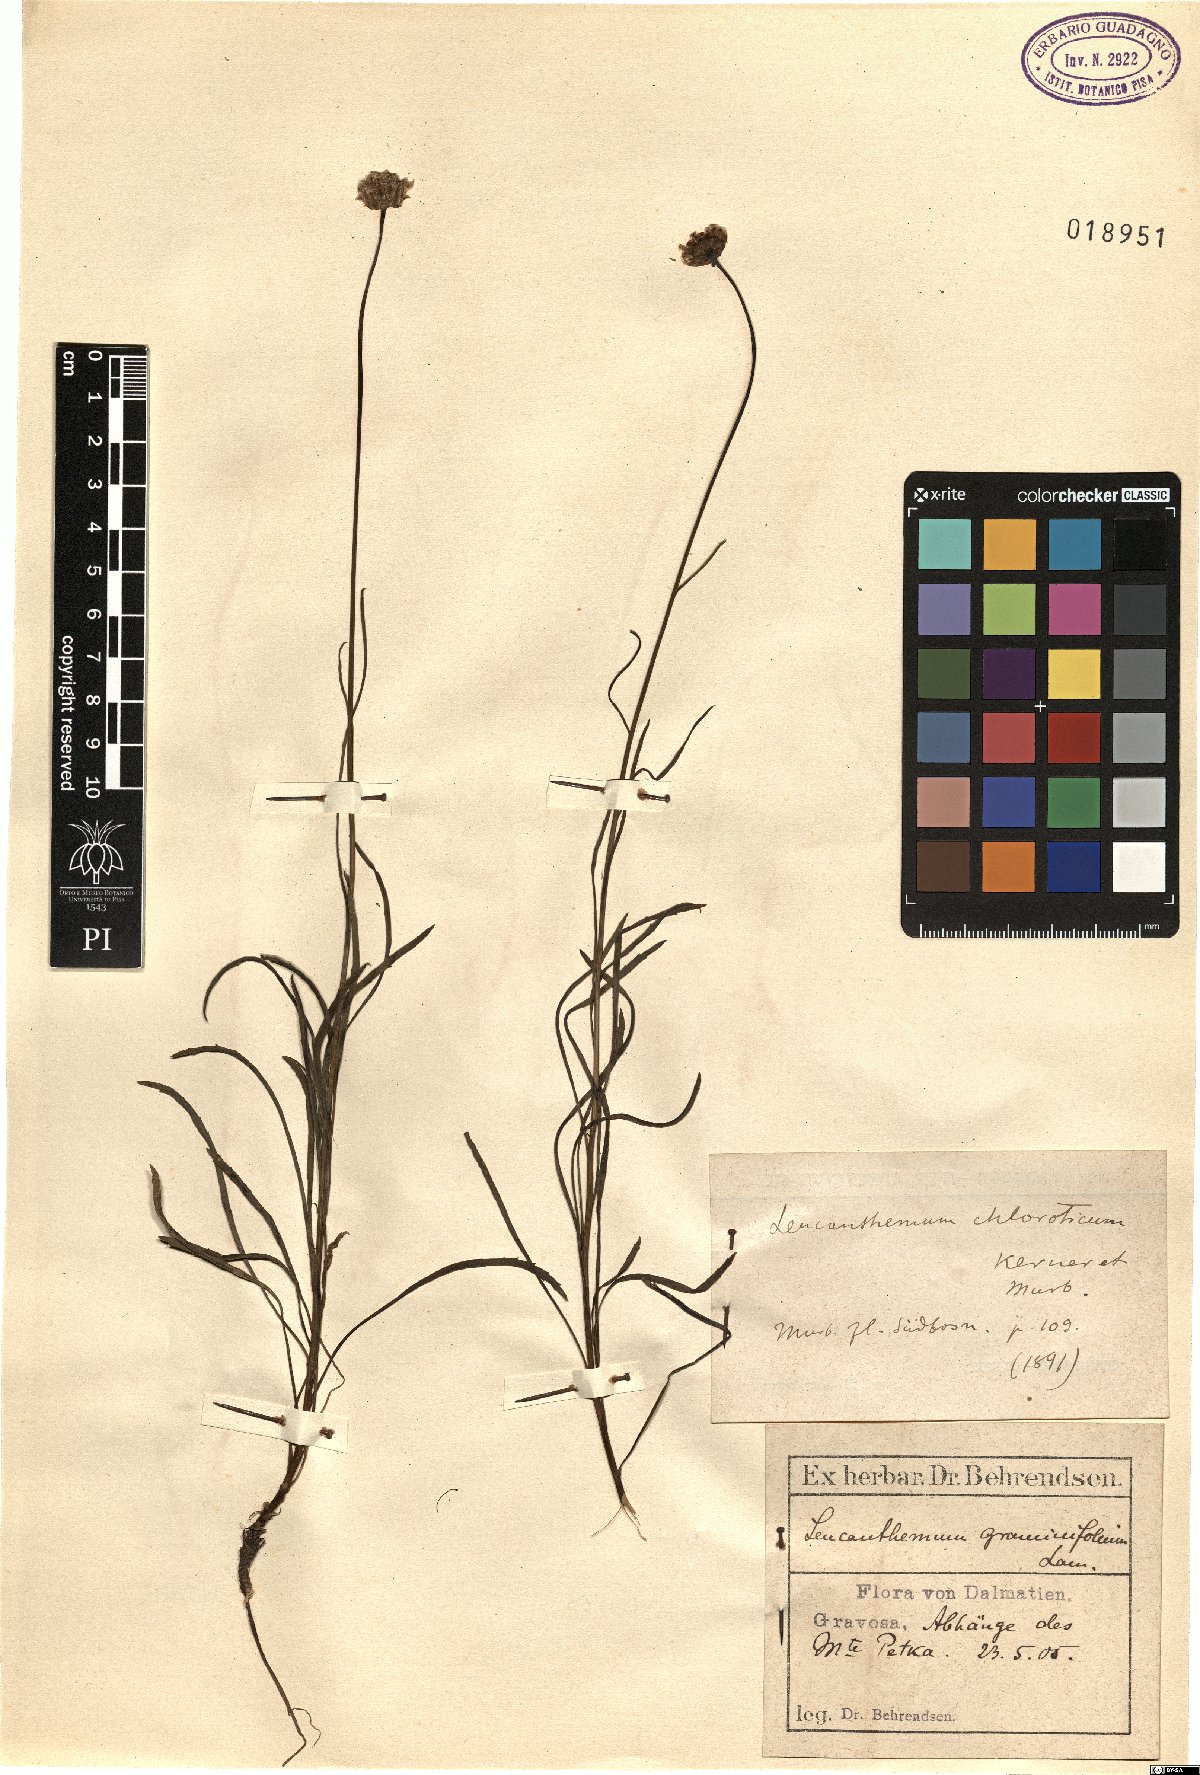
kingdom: Plantae
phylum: Tracheophyta
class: Magnoliopsida
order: Asterales
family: Asteraceae
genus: Leucanthemum
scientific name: Leucanthemum chloroticum
